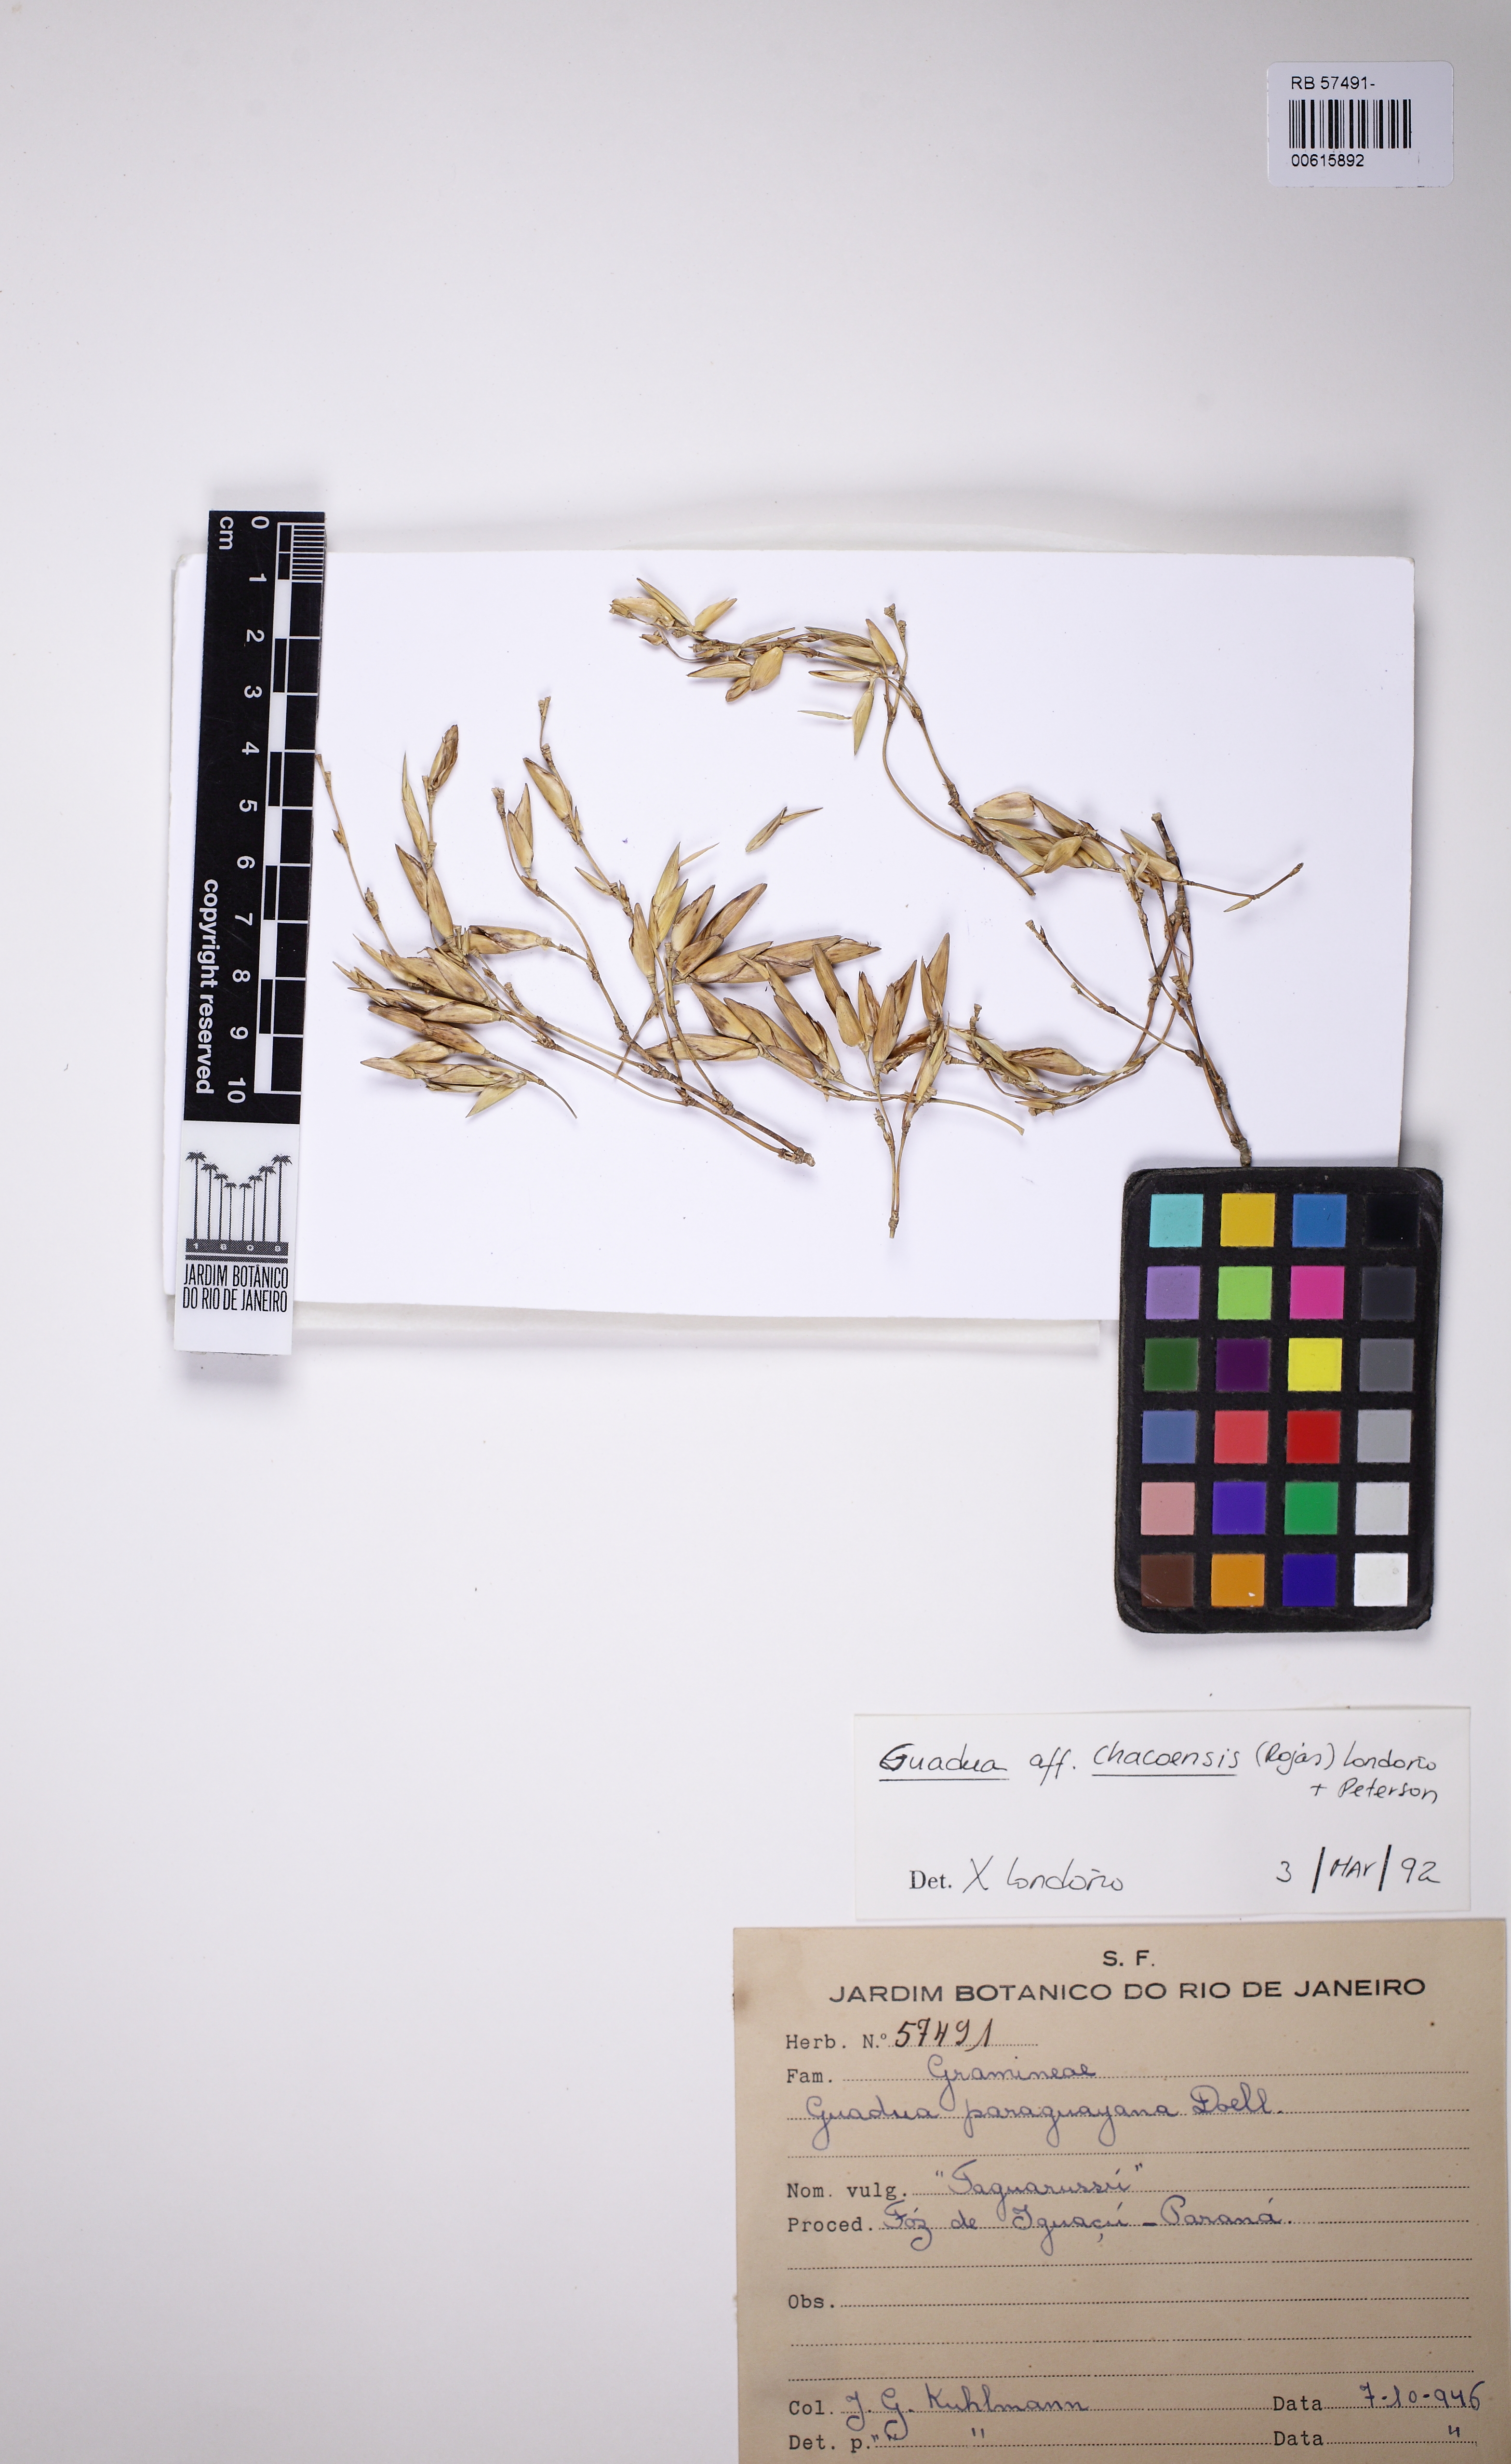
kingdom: Plantae
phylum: Tracheophyta
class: Liliopsida
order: Poales
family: Poaceae
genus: Guadua
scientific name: Guadua chacoensis
